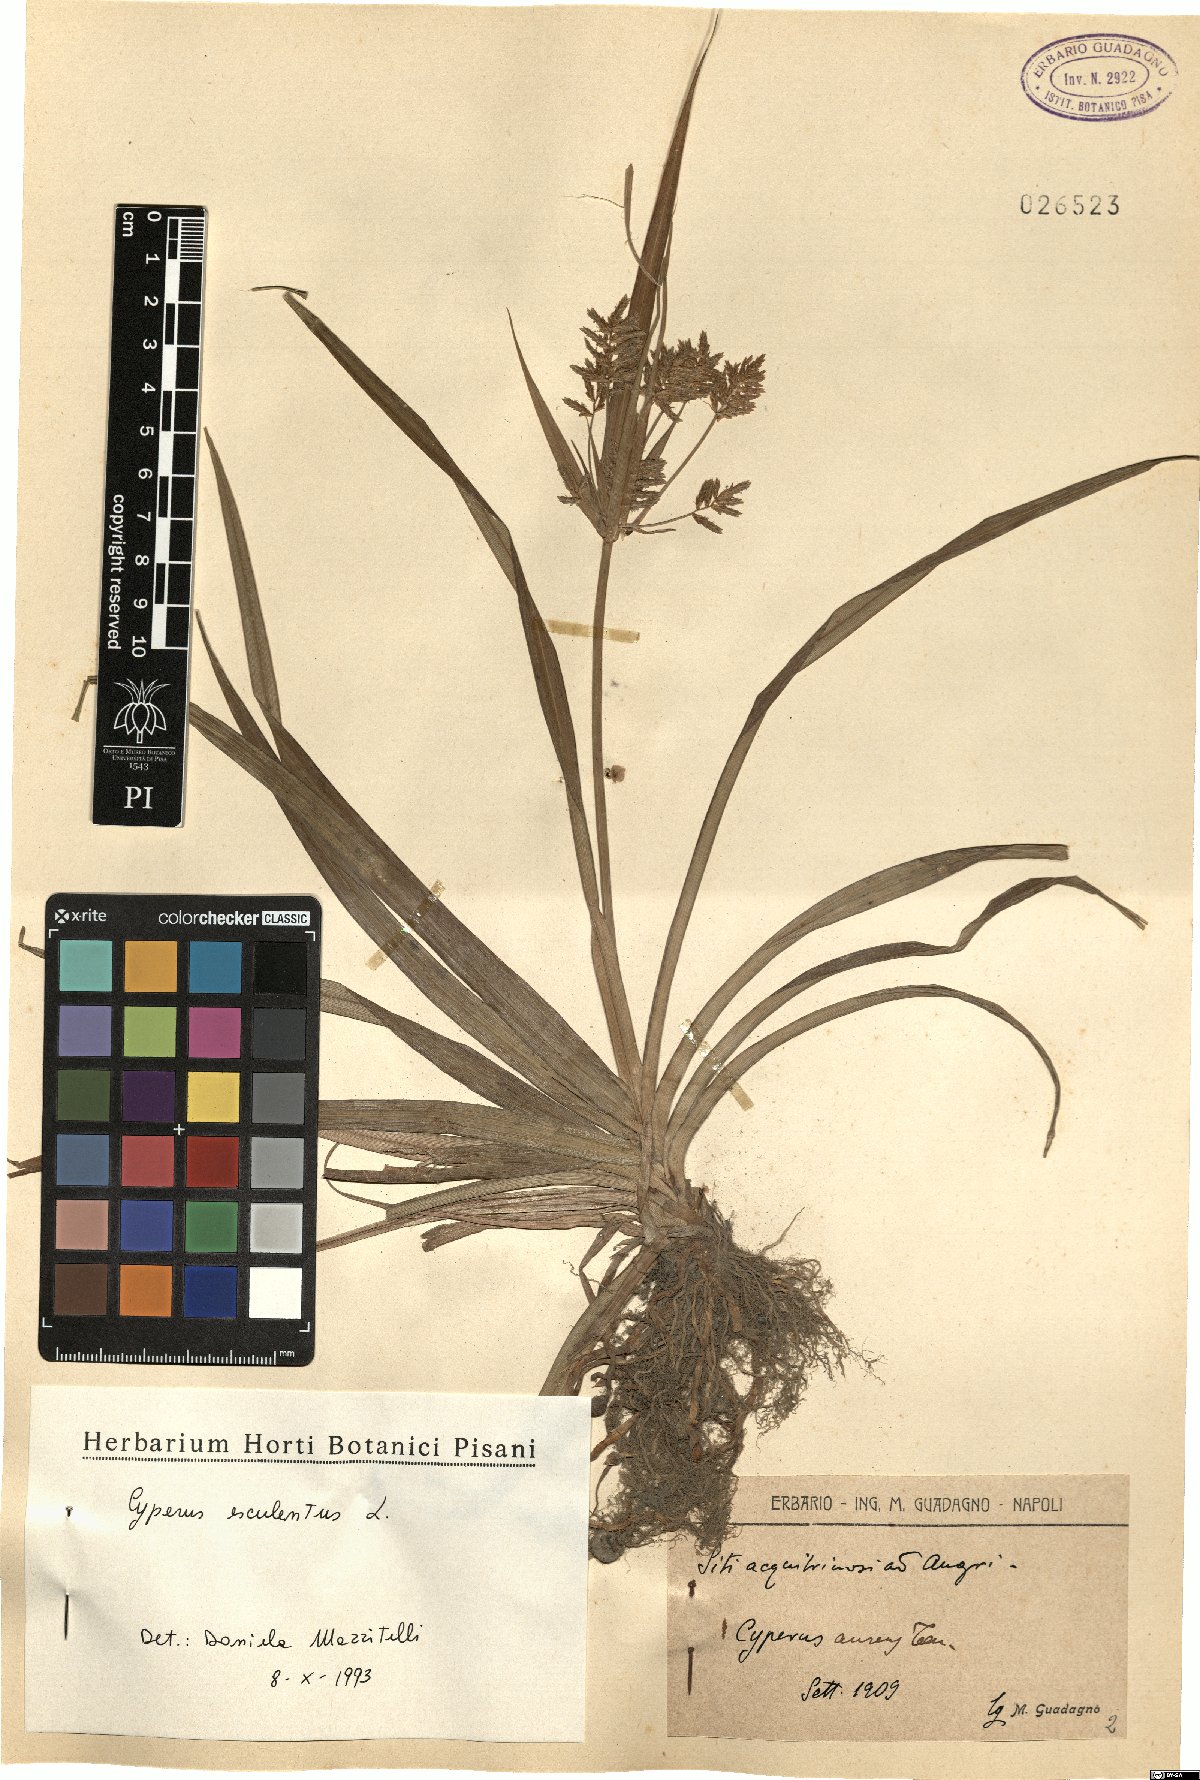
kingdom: Plantae
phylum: Tracheophyta
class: Liliopsida
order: Poales
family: Cyperaceae
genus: Cyperus
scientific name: Cyperus esculentus
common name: Yellow nutsedge
